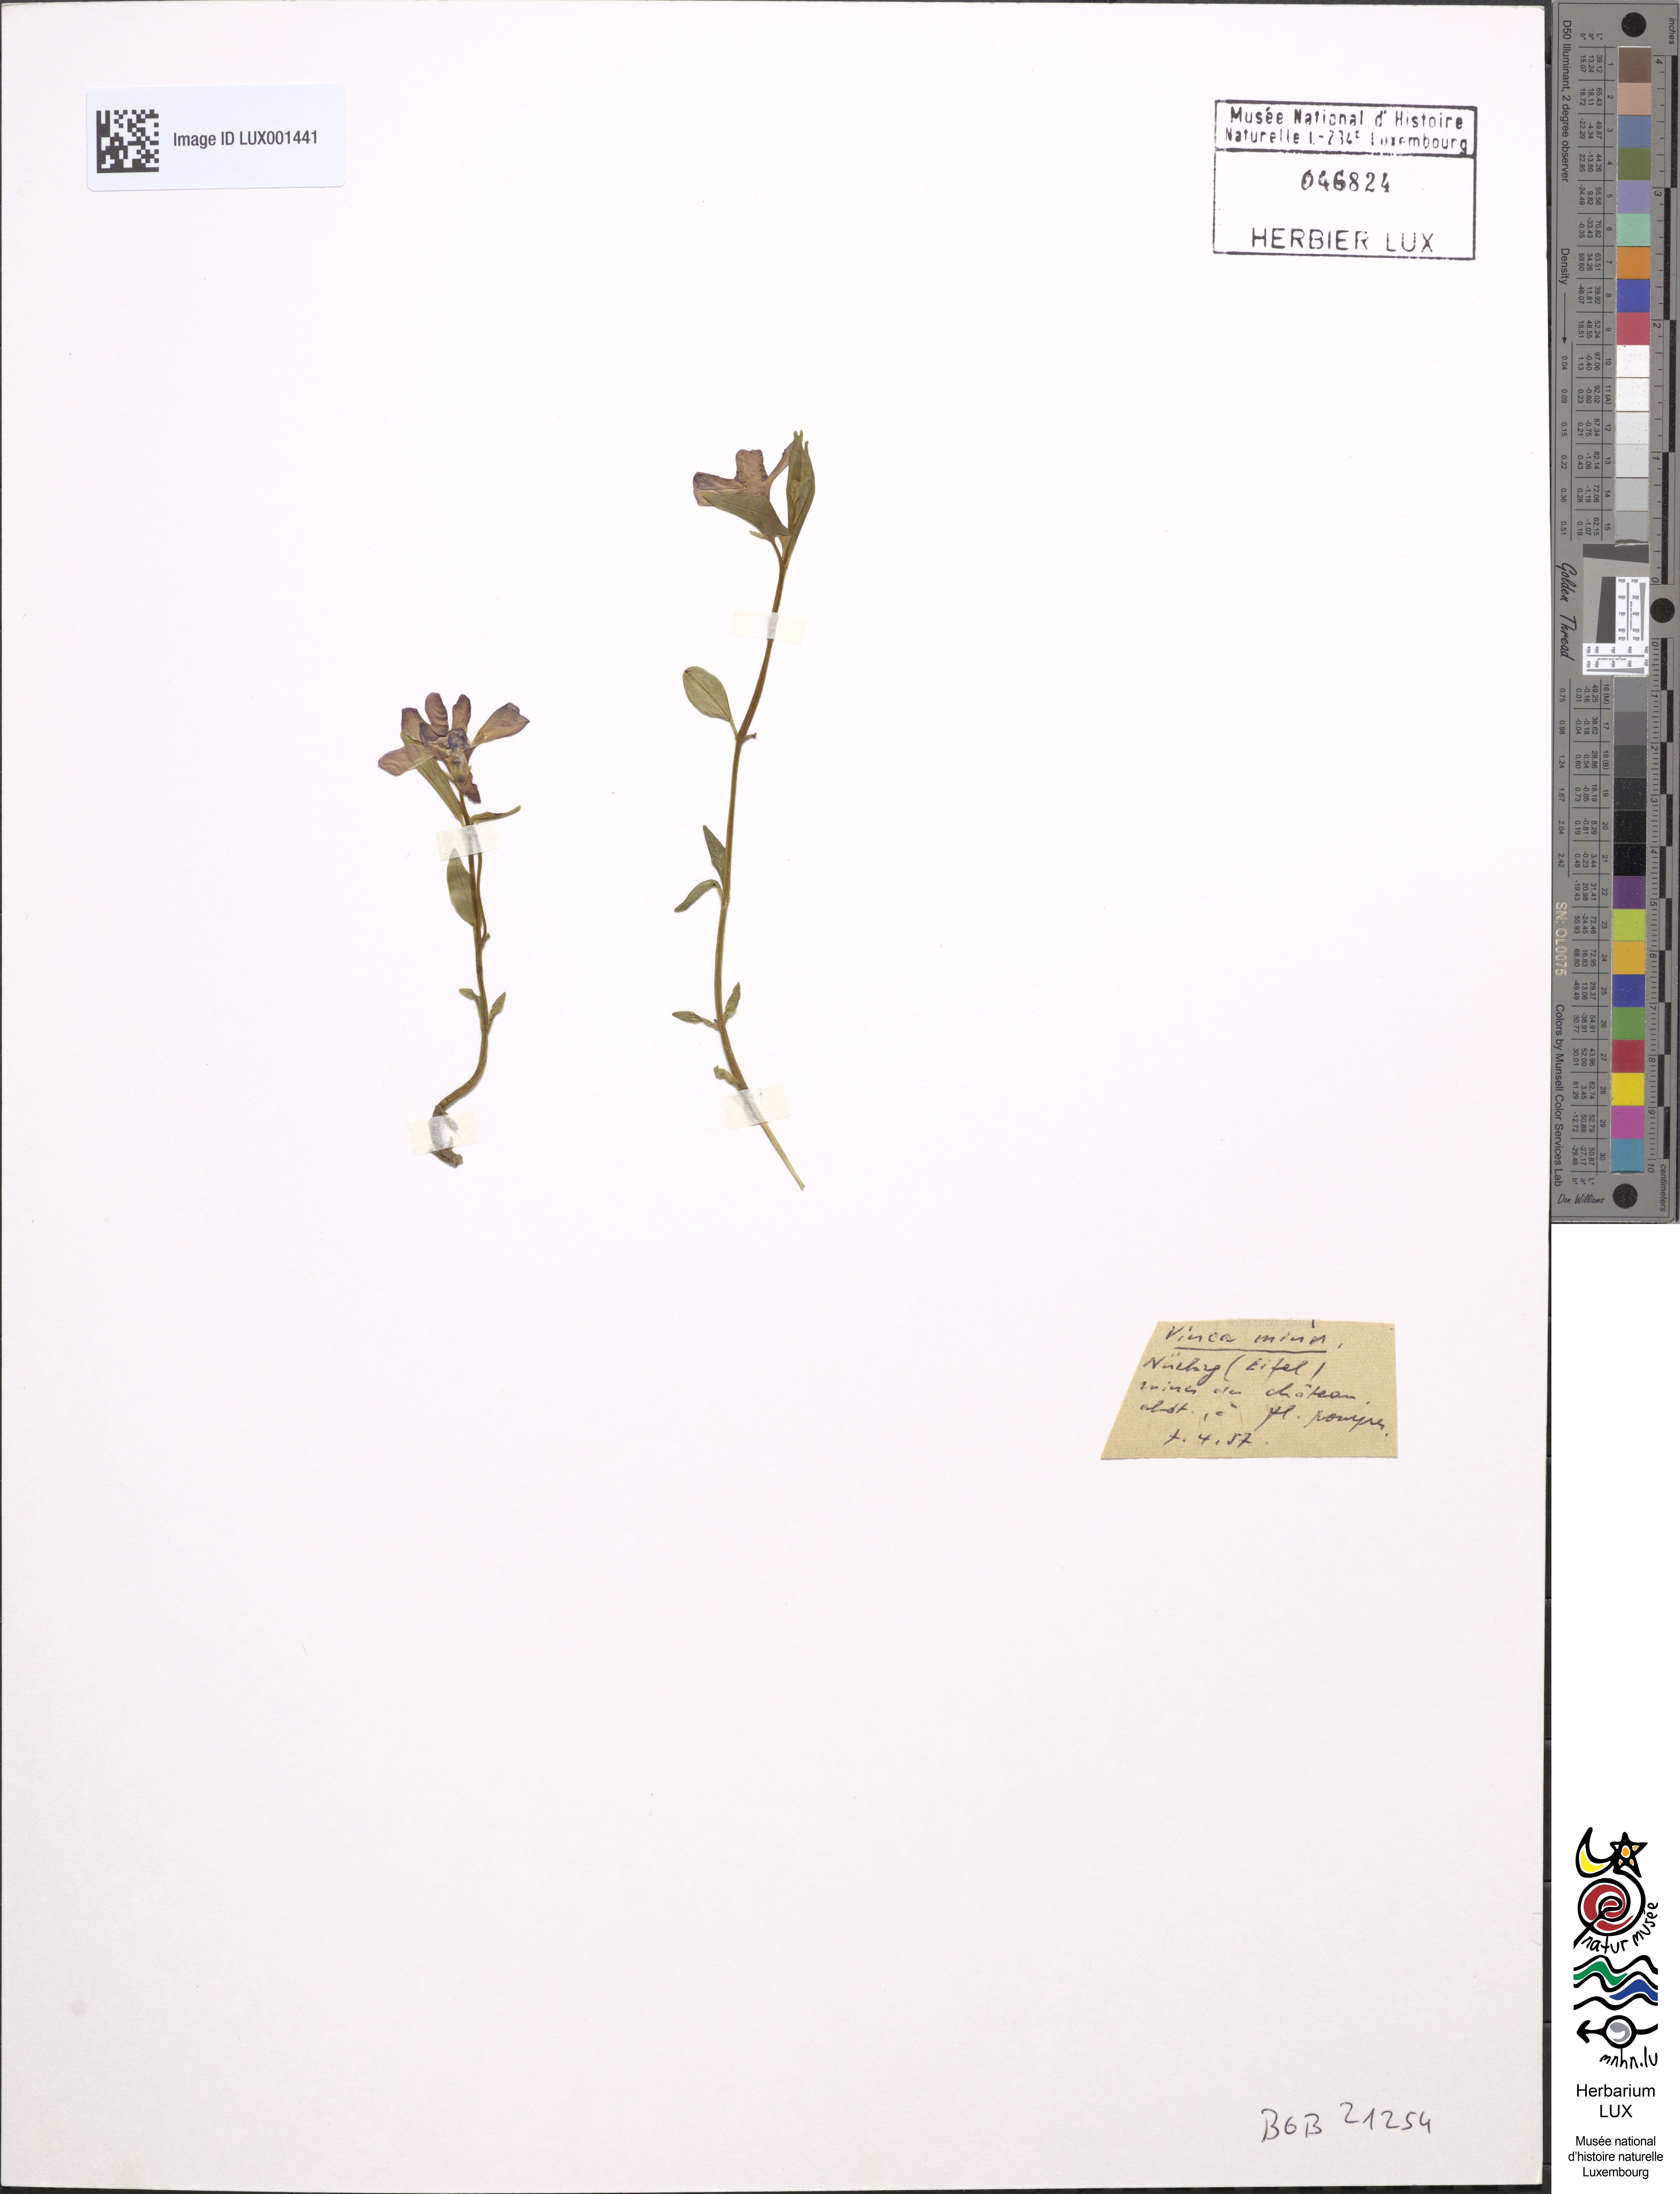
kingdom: Plantae
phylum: Tracheophyta
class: Magnoliopsida
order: Gentianales
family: Apocynaceae
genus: Vinca
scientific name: Vinca minor
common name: Lesser periwinkle
